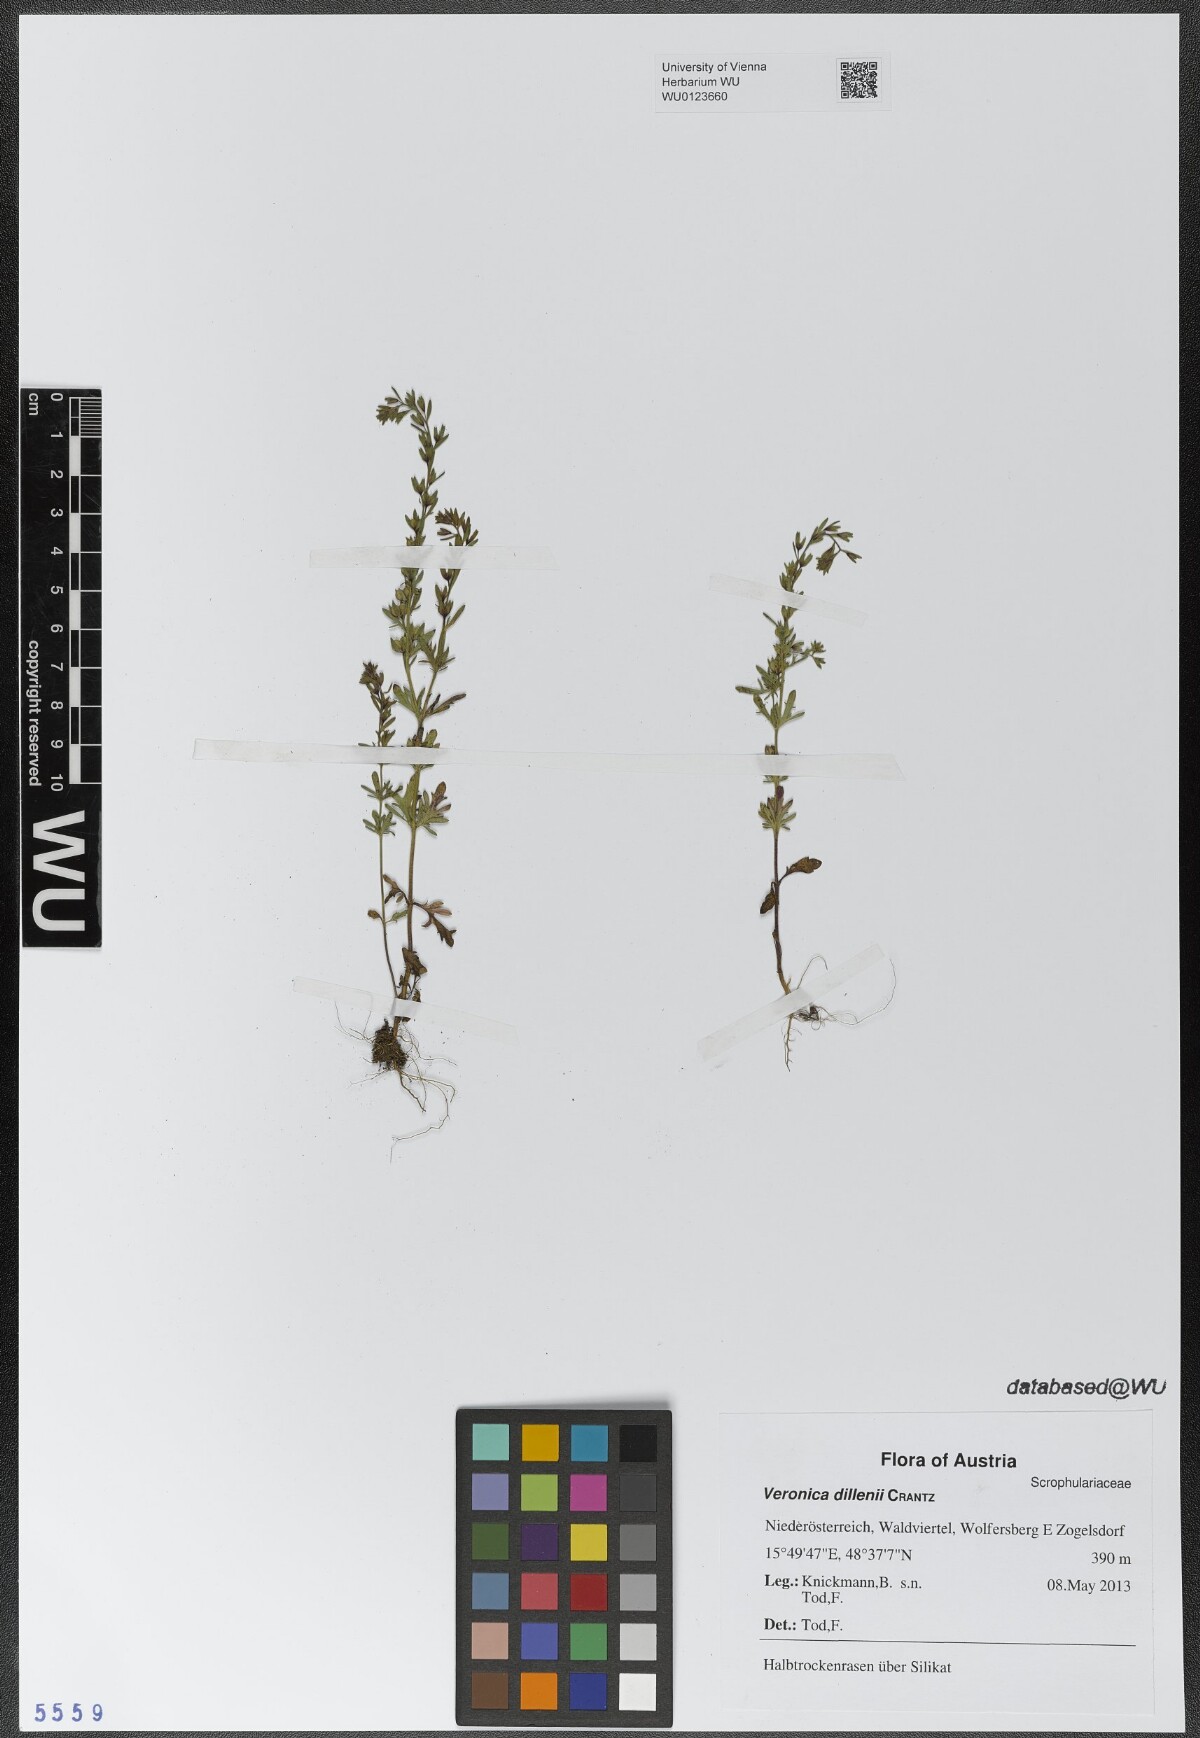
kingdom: Plantae
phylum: Tracheophyta
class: Magnoliopsida
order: Lamiales
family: Plantaginaceae
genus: Veronica
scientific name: Veronica dillenii
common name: Dillenius' speedwell
